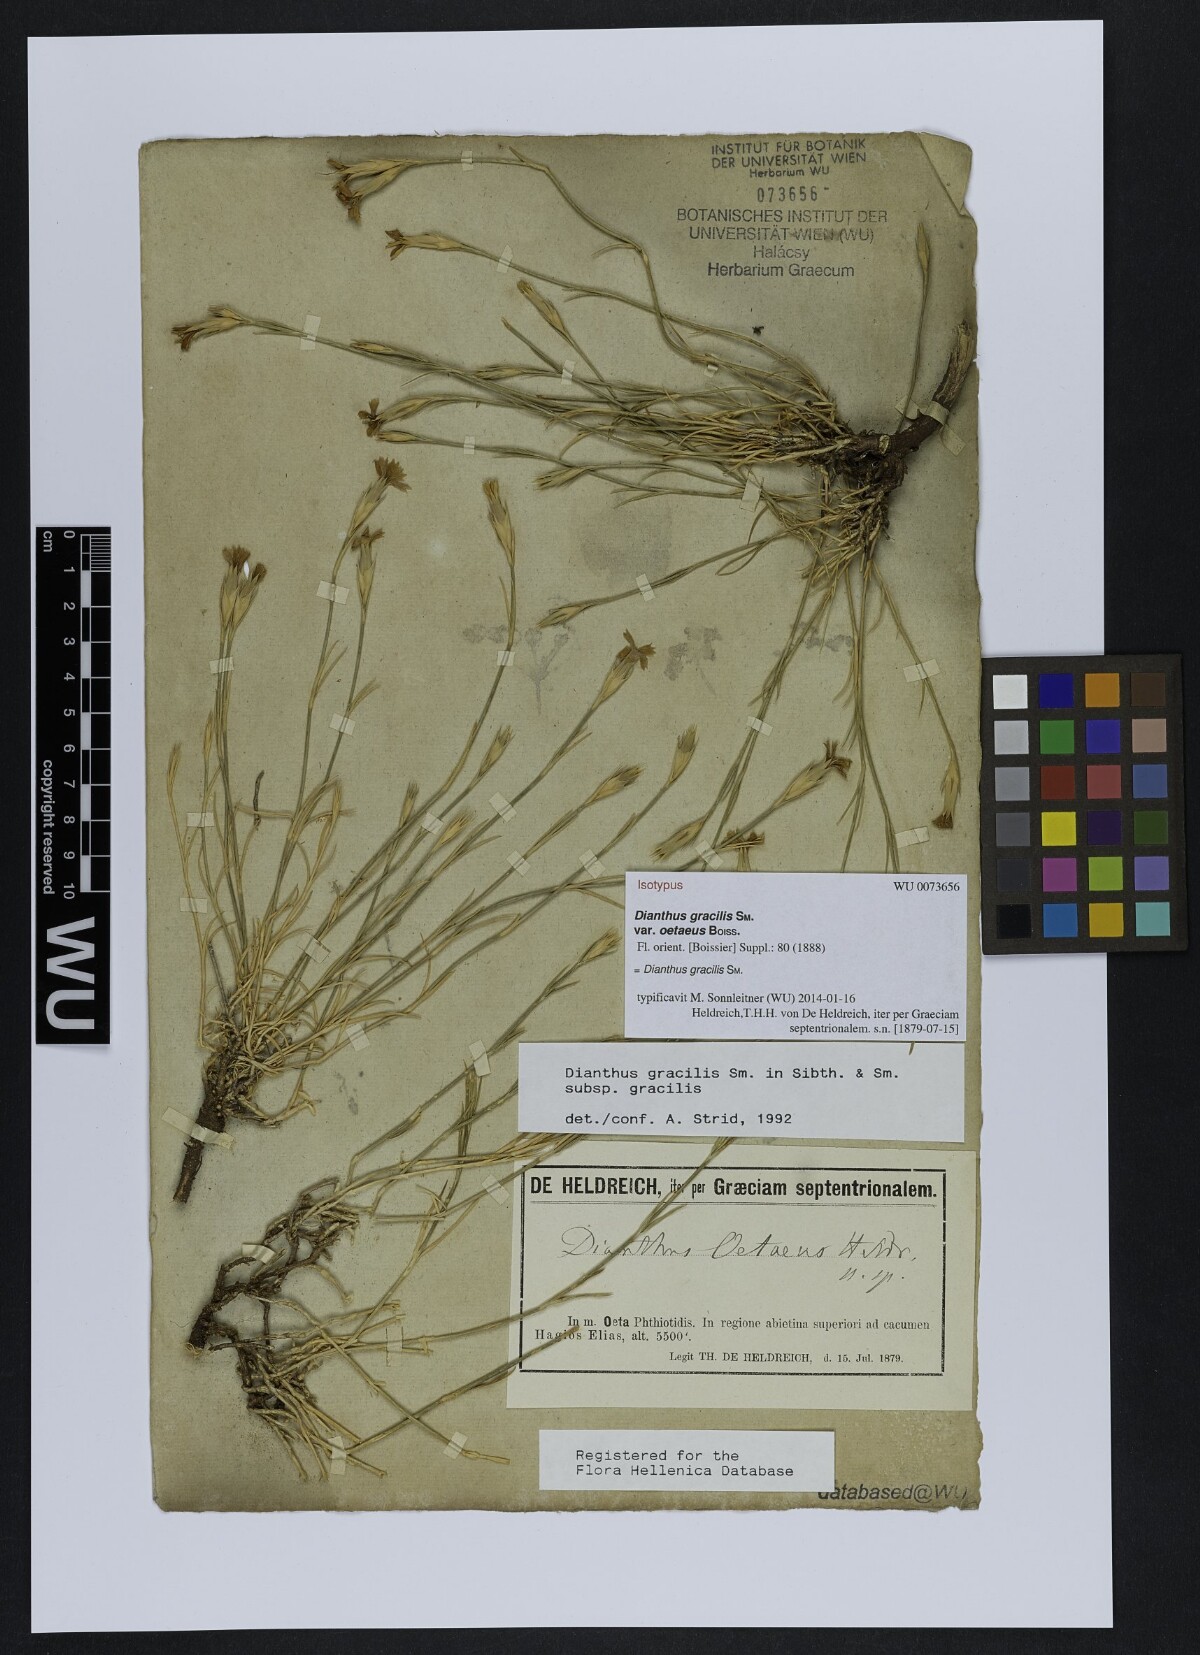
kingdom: Plantae
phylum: Tracheophyta
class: Magnoliopsida
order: Caryophyllales
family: Caryophyllaceae
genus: Dianthus
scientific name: Dianthus gracilis
